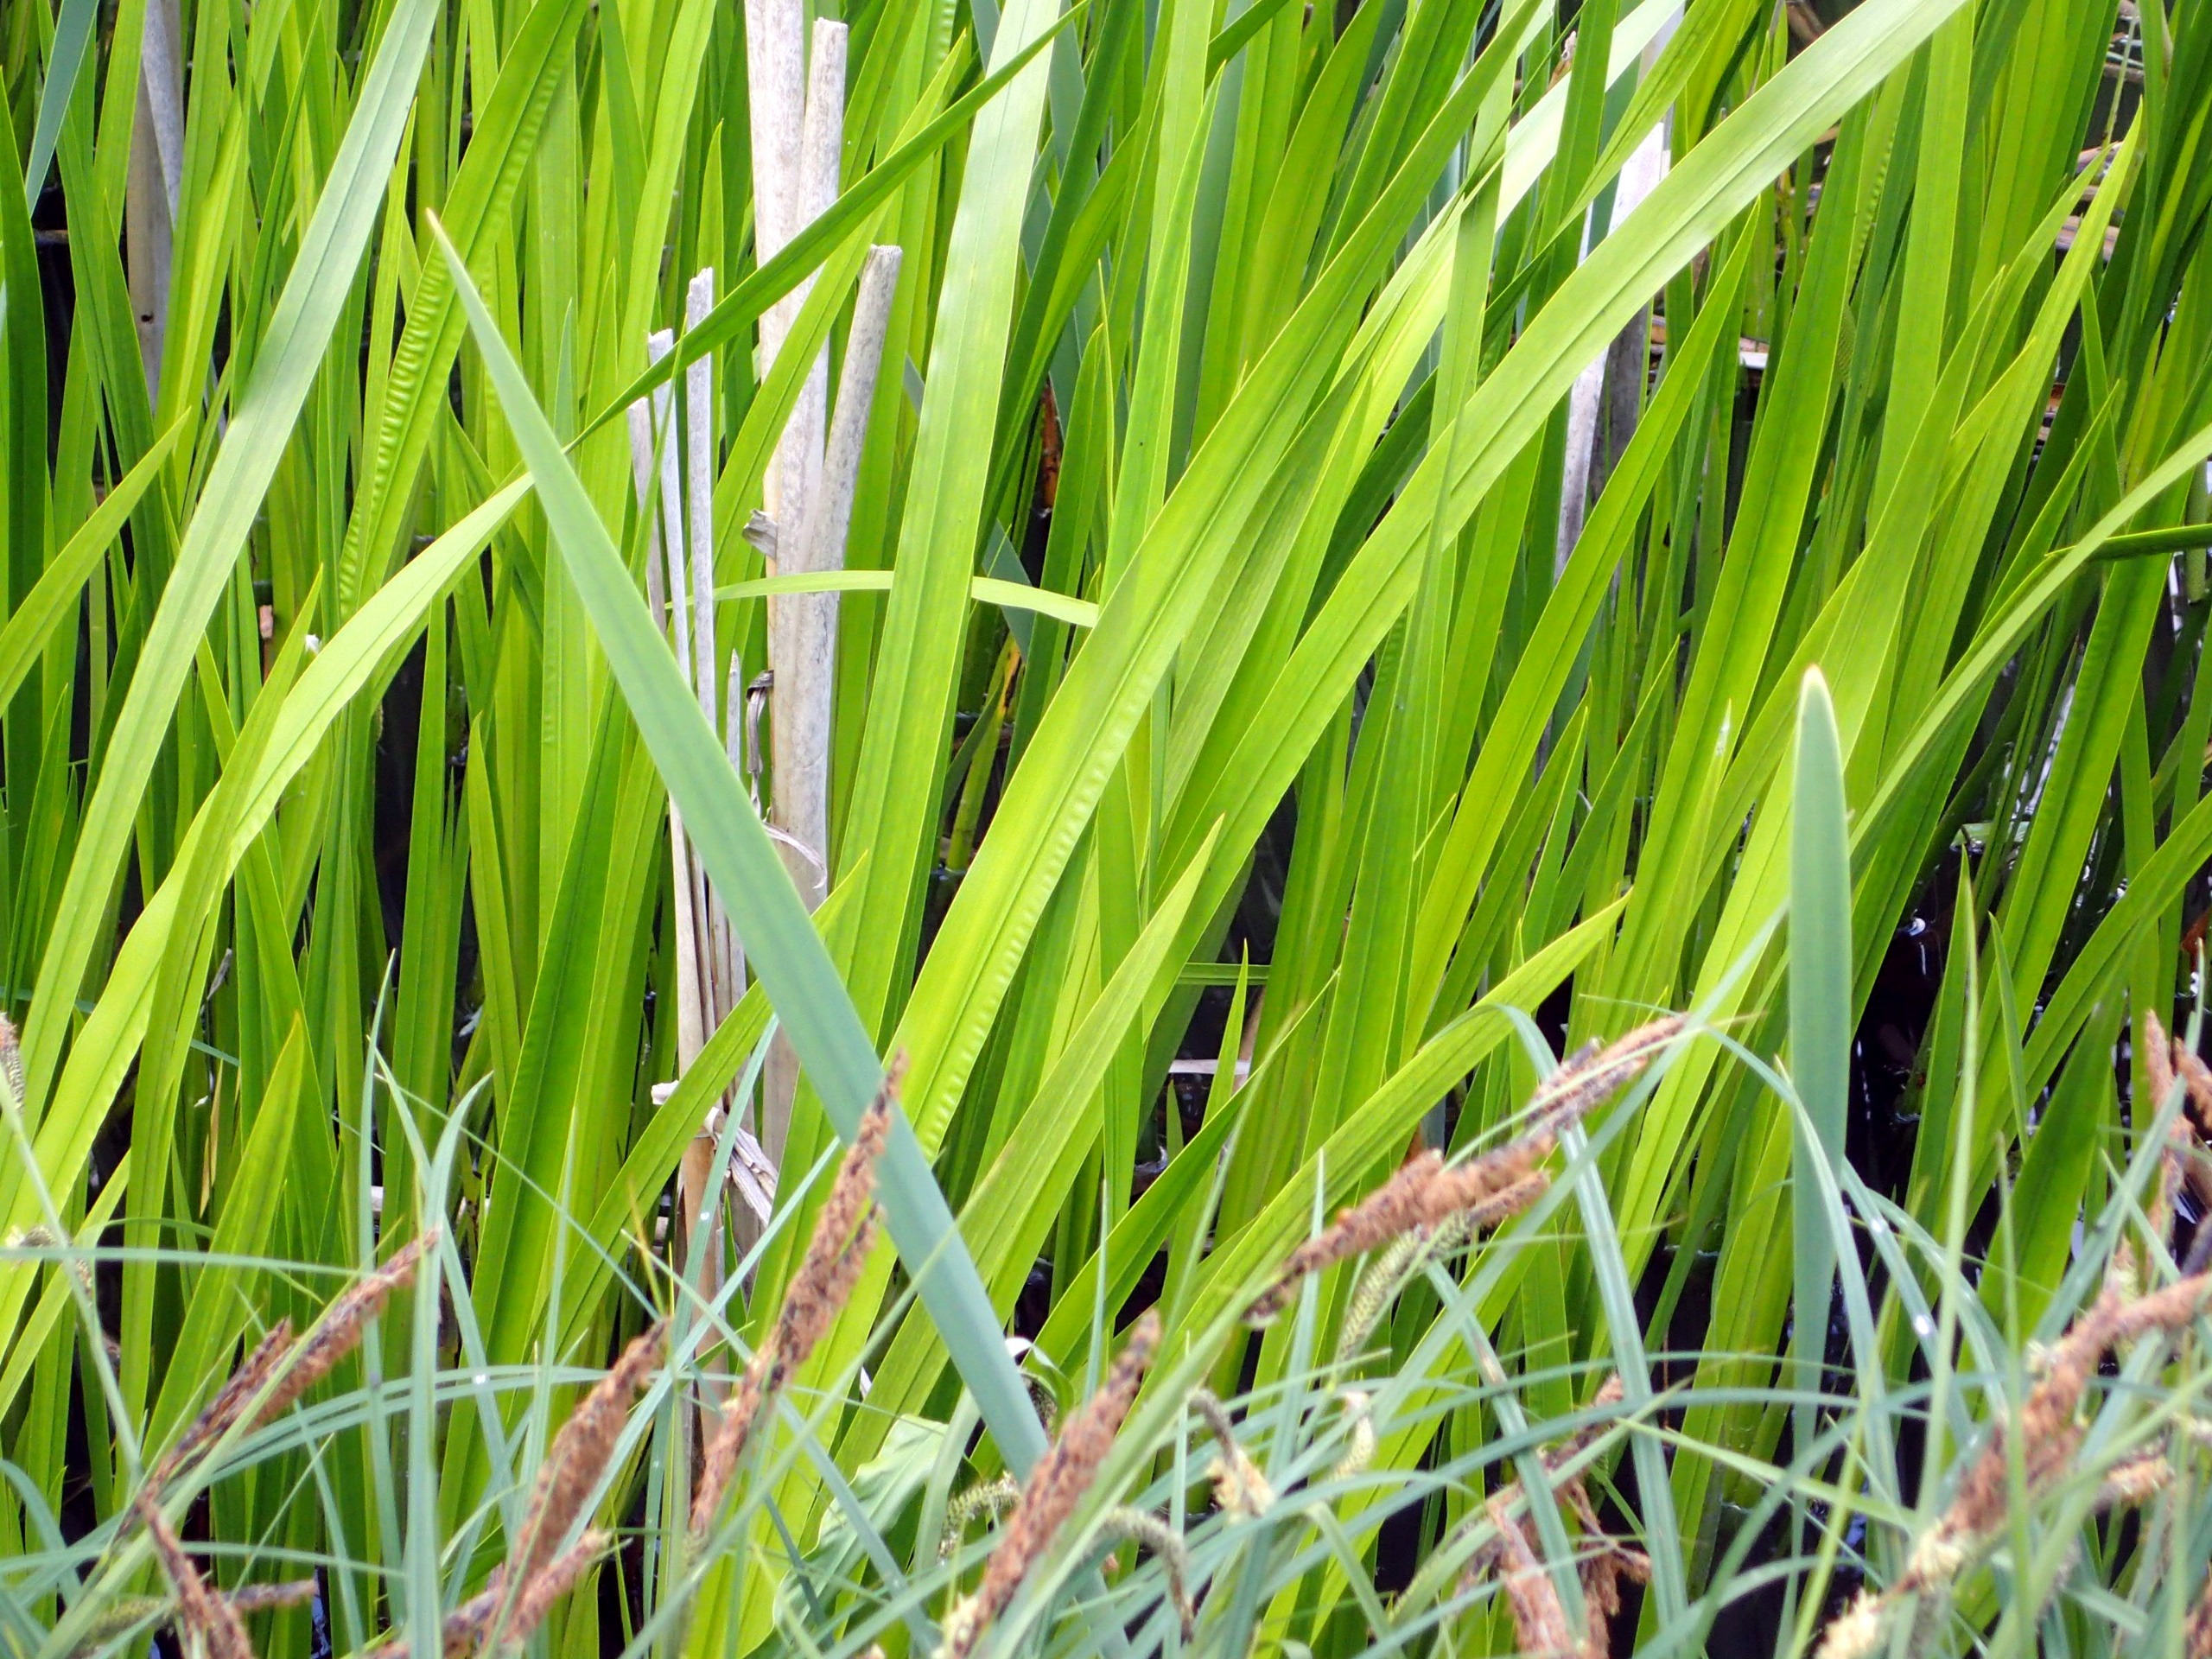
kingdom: Plantae
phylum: Tracheophyta
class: Liliopsida
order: Acorales
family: Acoraceae
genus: Acorus
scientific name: Acorus calamus
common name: Kalmus
